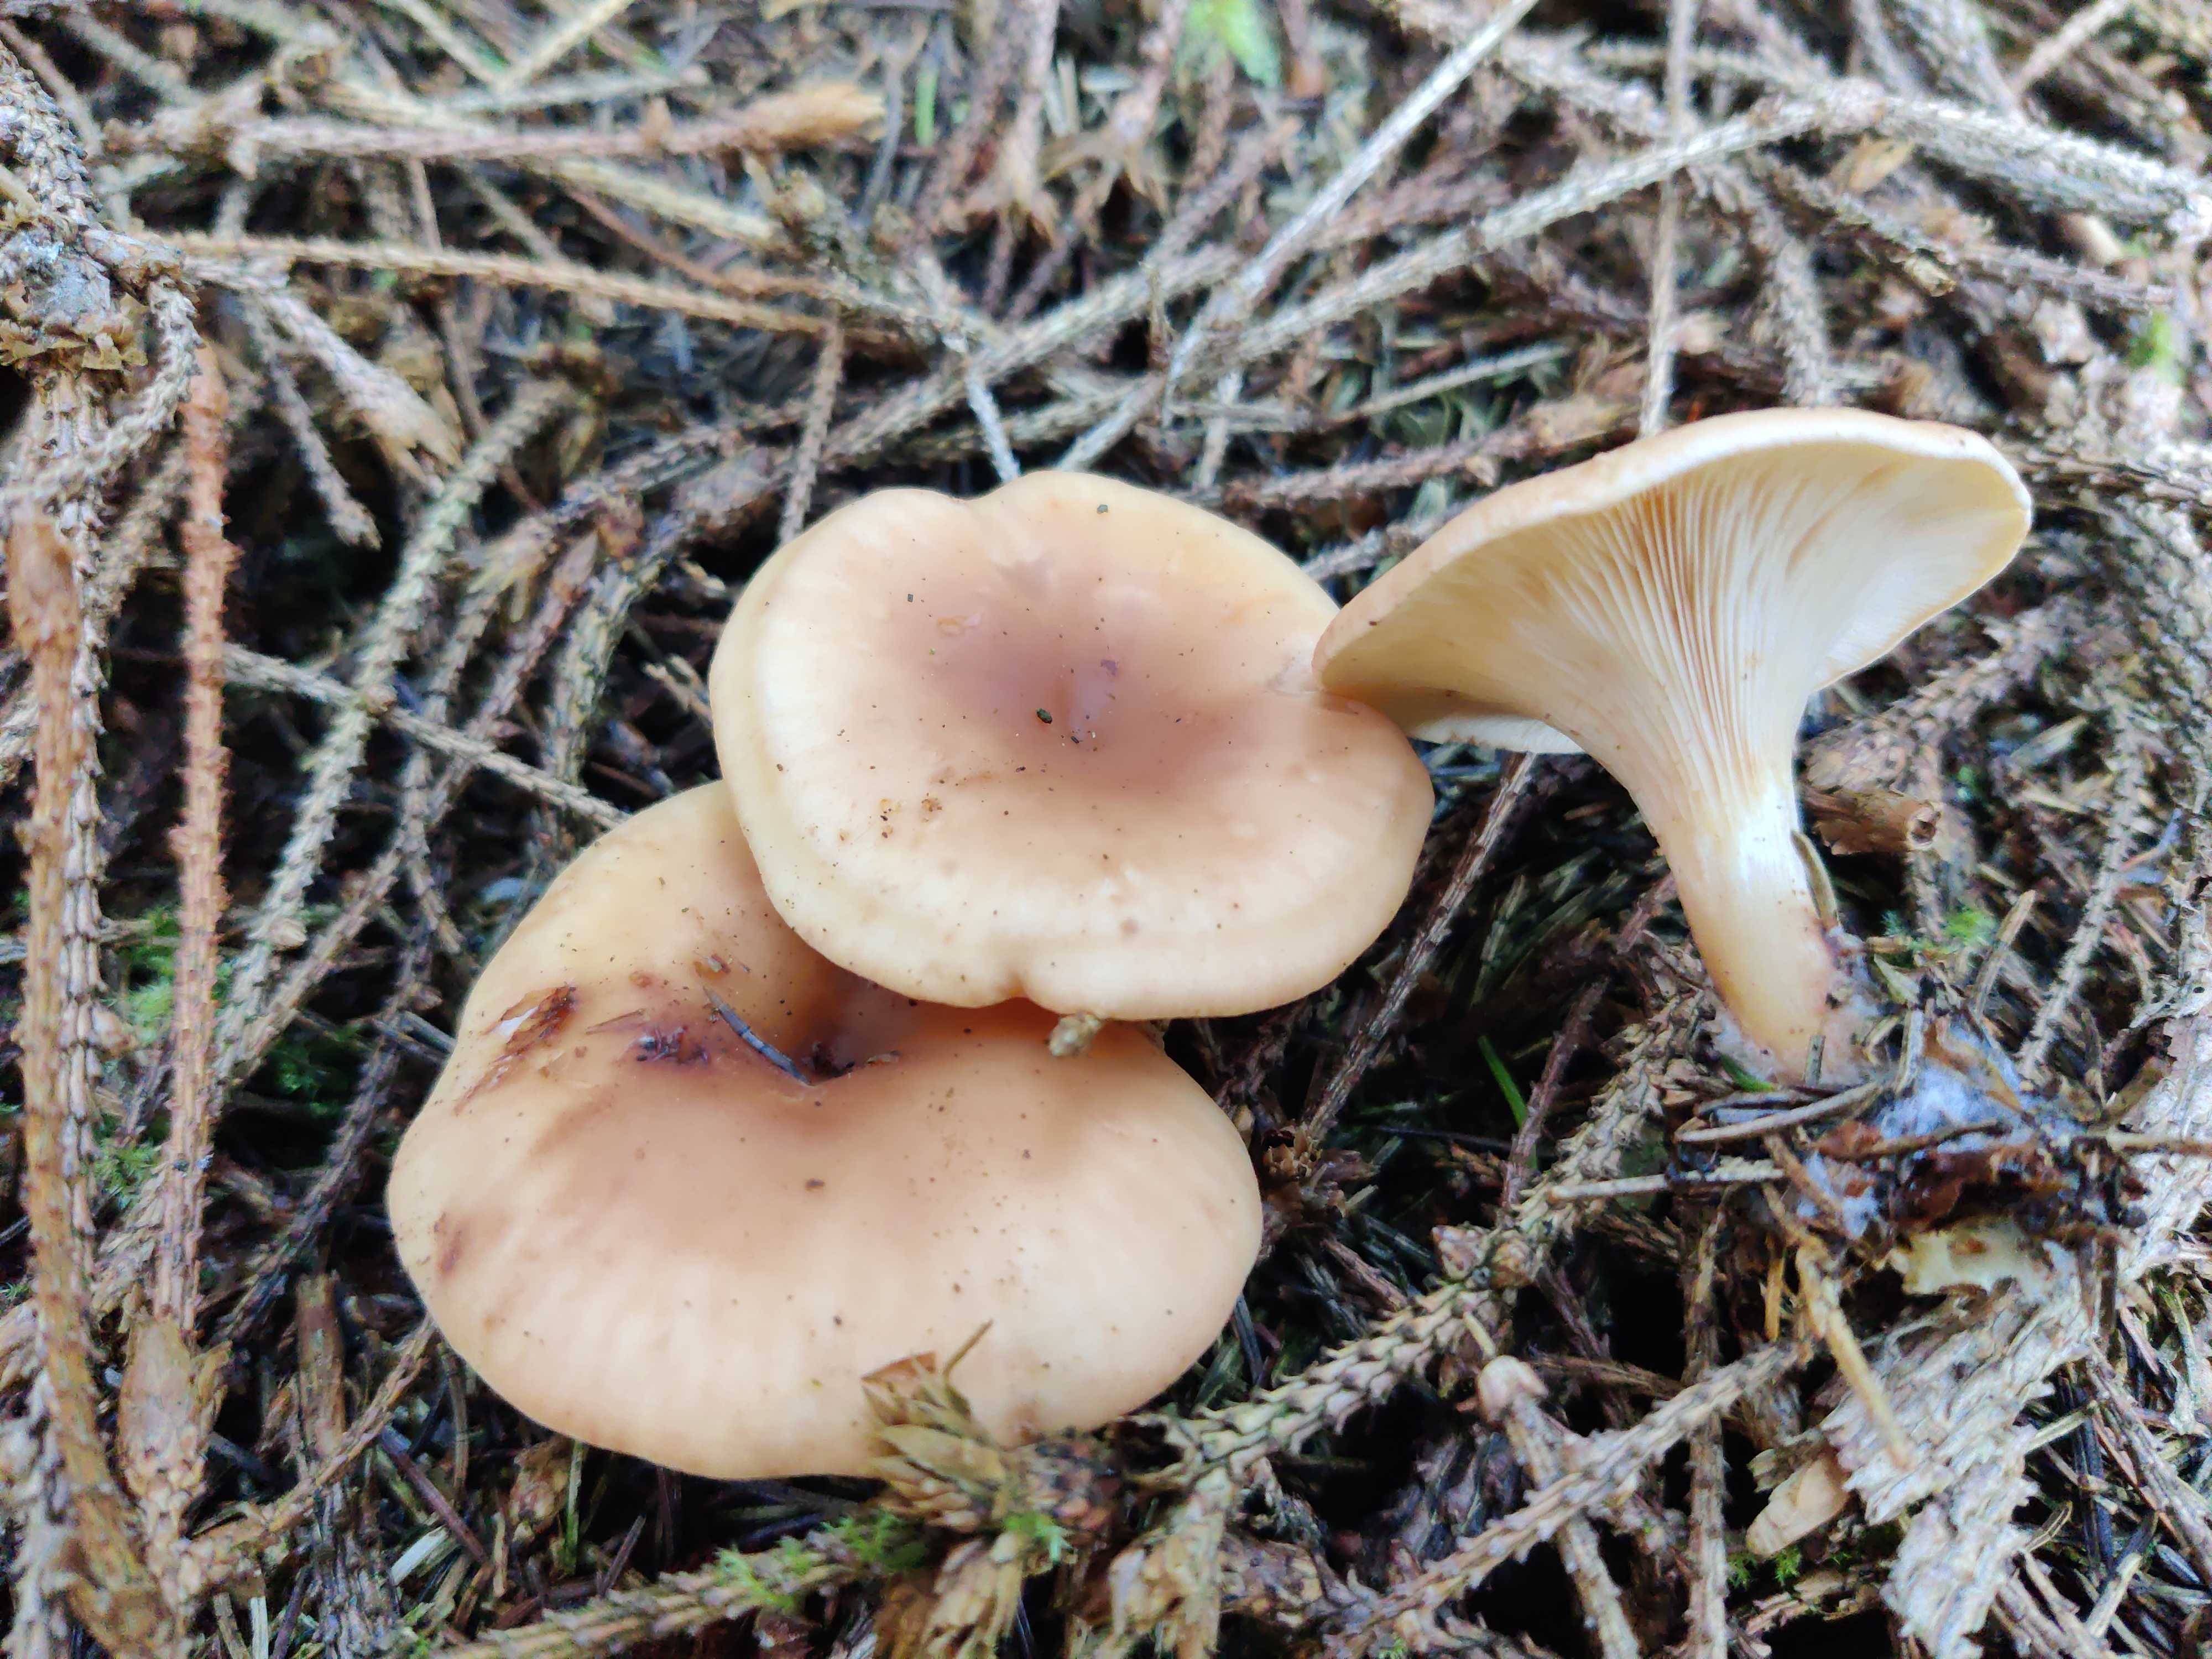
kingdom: Fungi
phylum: Basidiomycota
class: Agaricomycetes
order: Agaricales
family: Tricholomataceae
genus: Paralepista
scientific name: Paralepista flaccida
